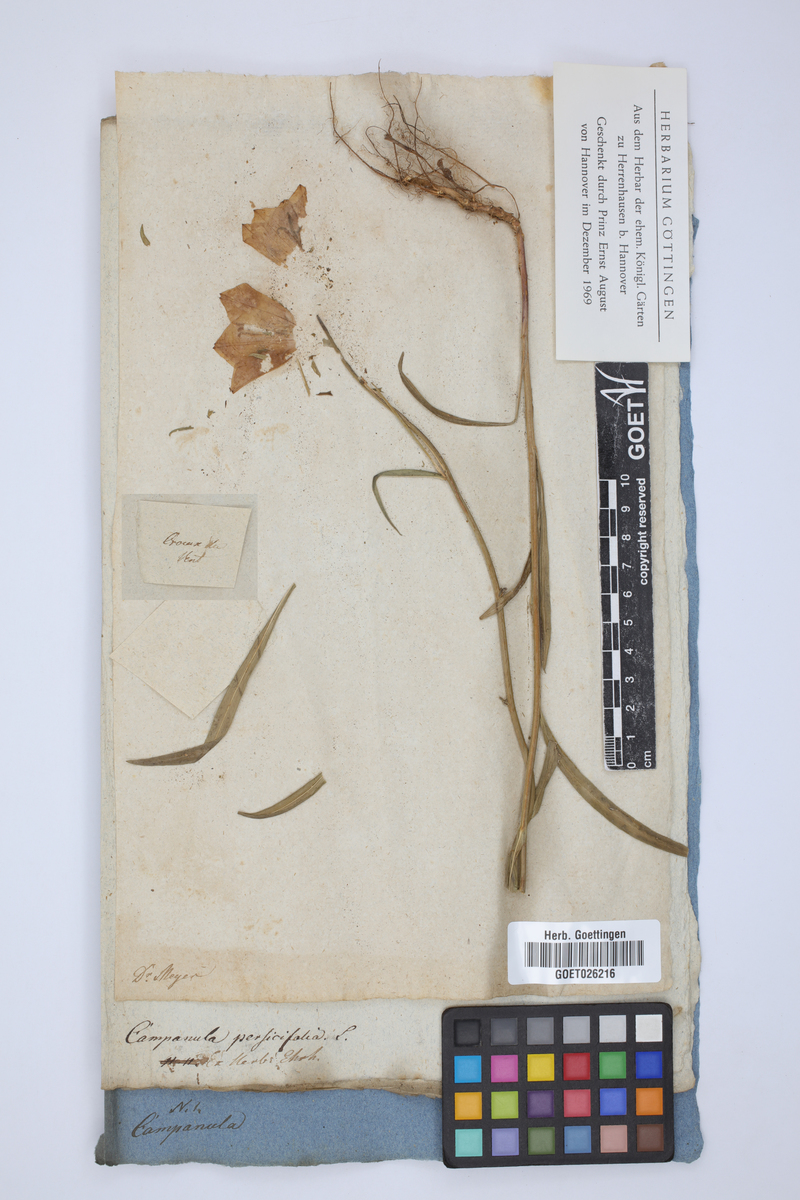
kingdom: Plantae
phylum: Tracheophyta
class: Magnoliopsida
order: Asterales
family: Campanulaceae
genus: Campanula
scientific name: Campanula persicifolia
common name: Peach-leaved bellflower
